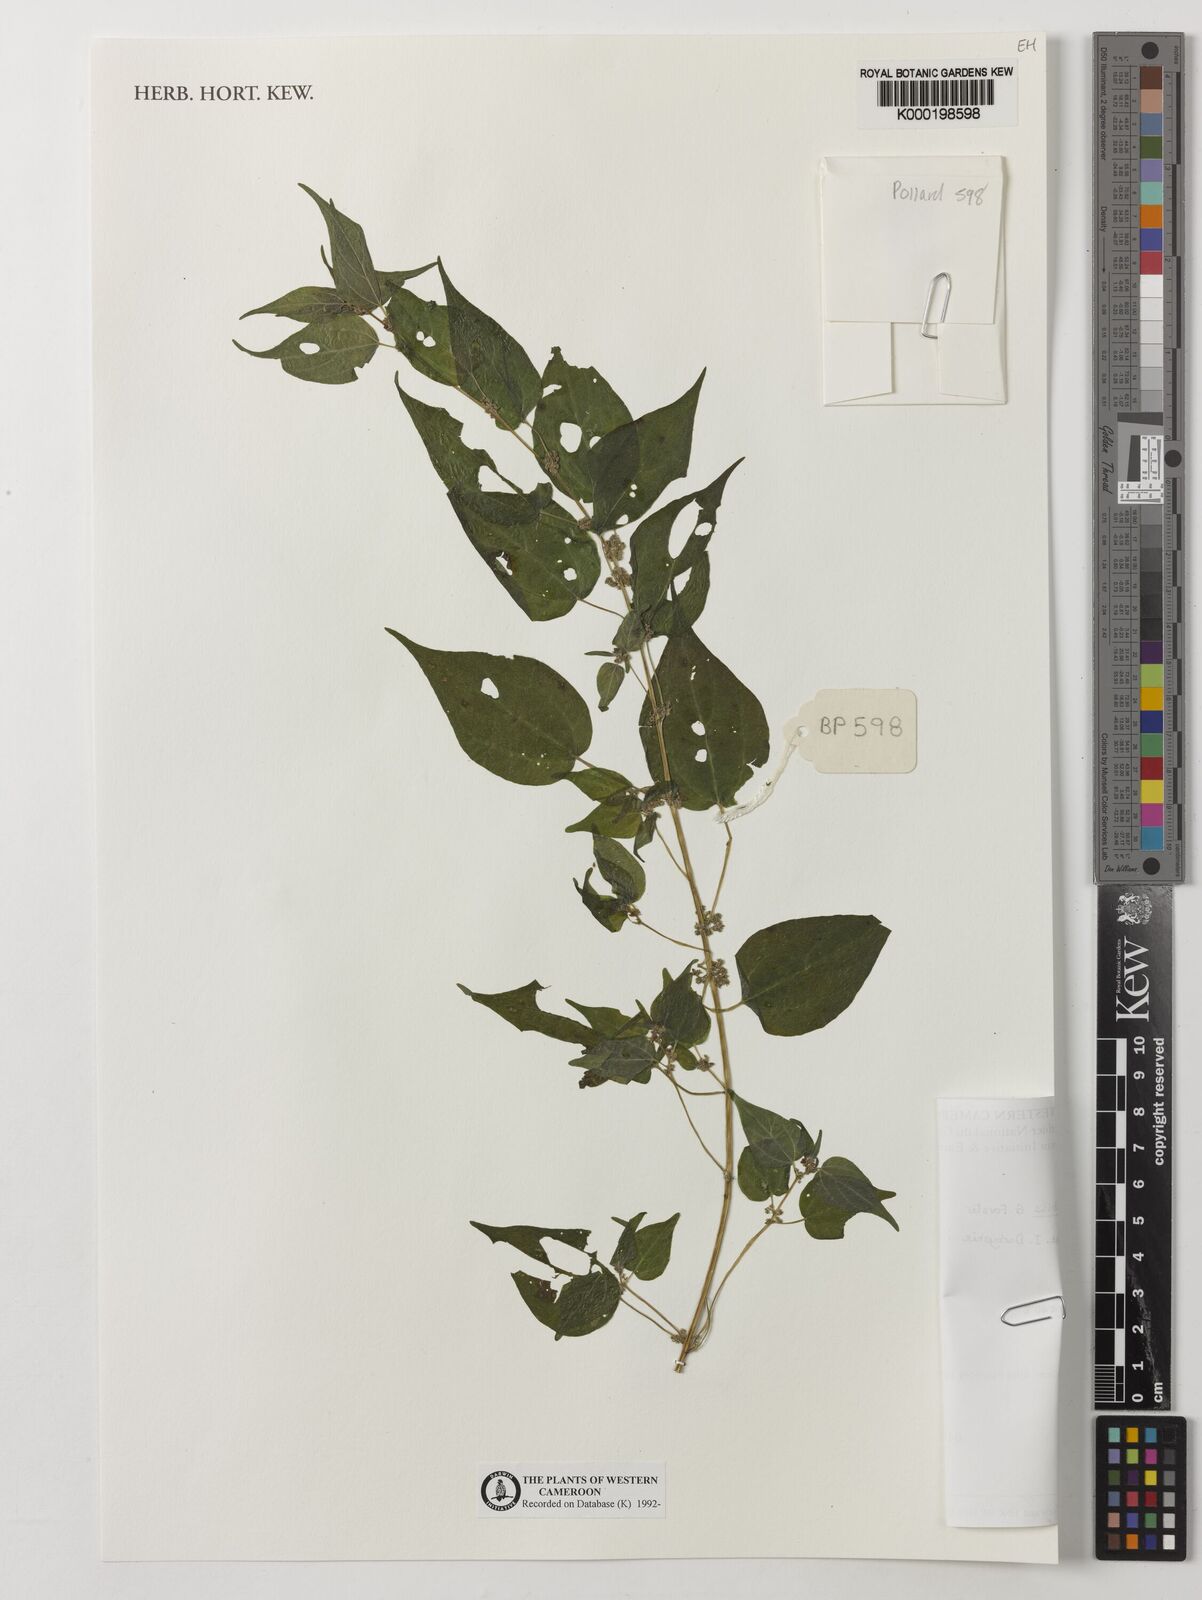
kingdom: Plantae
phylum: Tracheophyta
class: Magnoliopsida
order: Rosales
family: Urticaceae
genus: Parietaria
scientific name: Parietaria debilis
